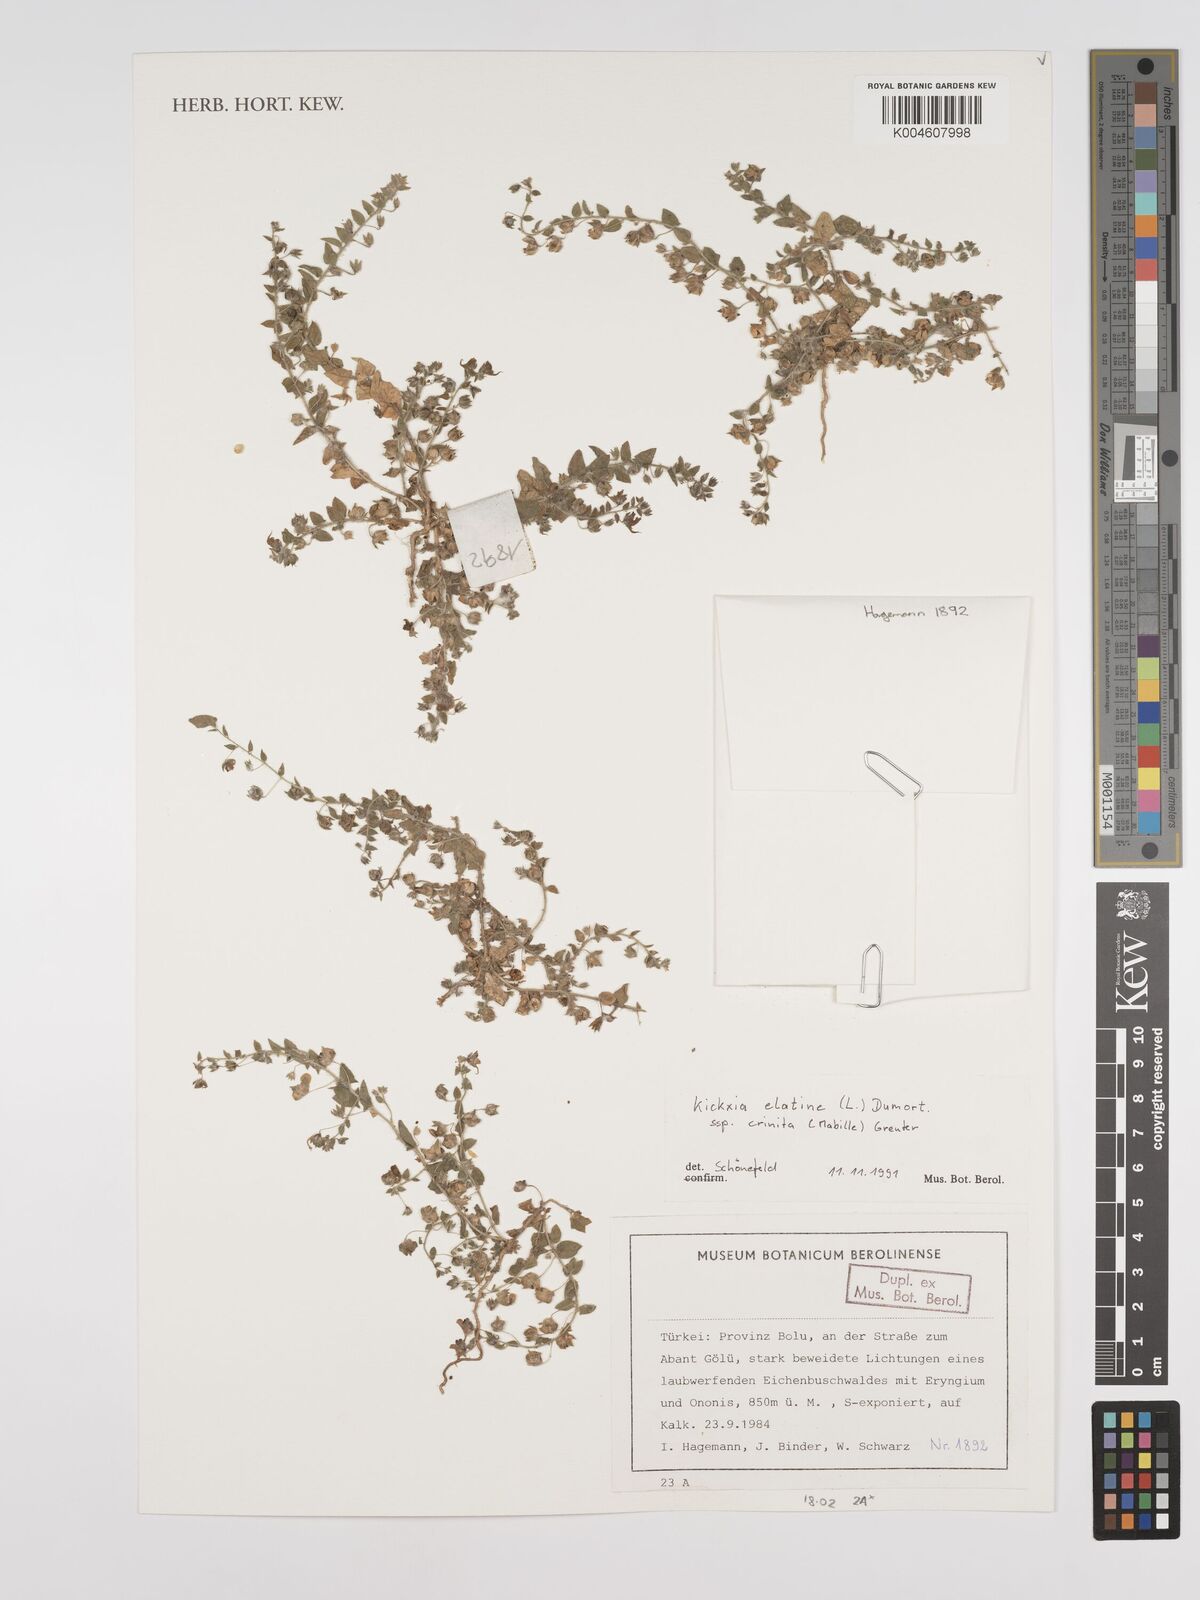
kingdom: Plantae
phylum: Tracheophyta
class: Magnoliopsida
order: Lamiales
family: Plantaginaceae
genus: Kickxia
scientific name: Kickxia elatine
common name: Sharp-leaved fluellen
